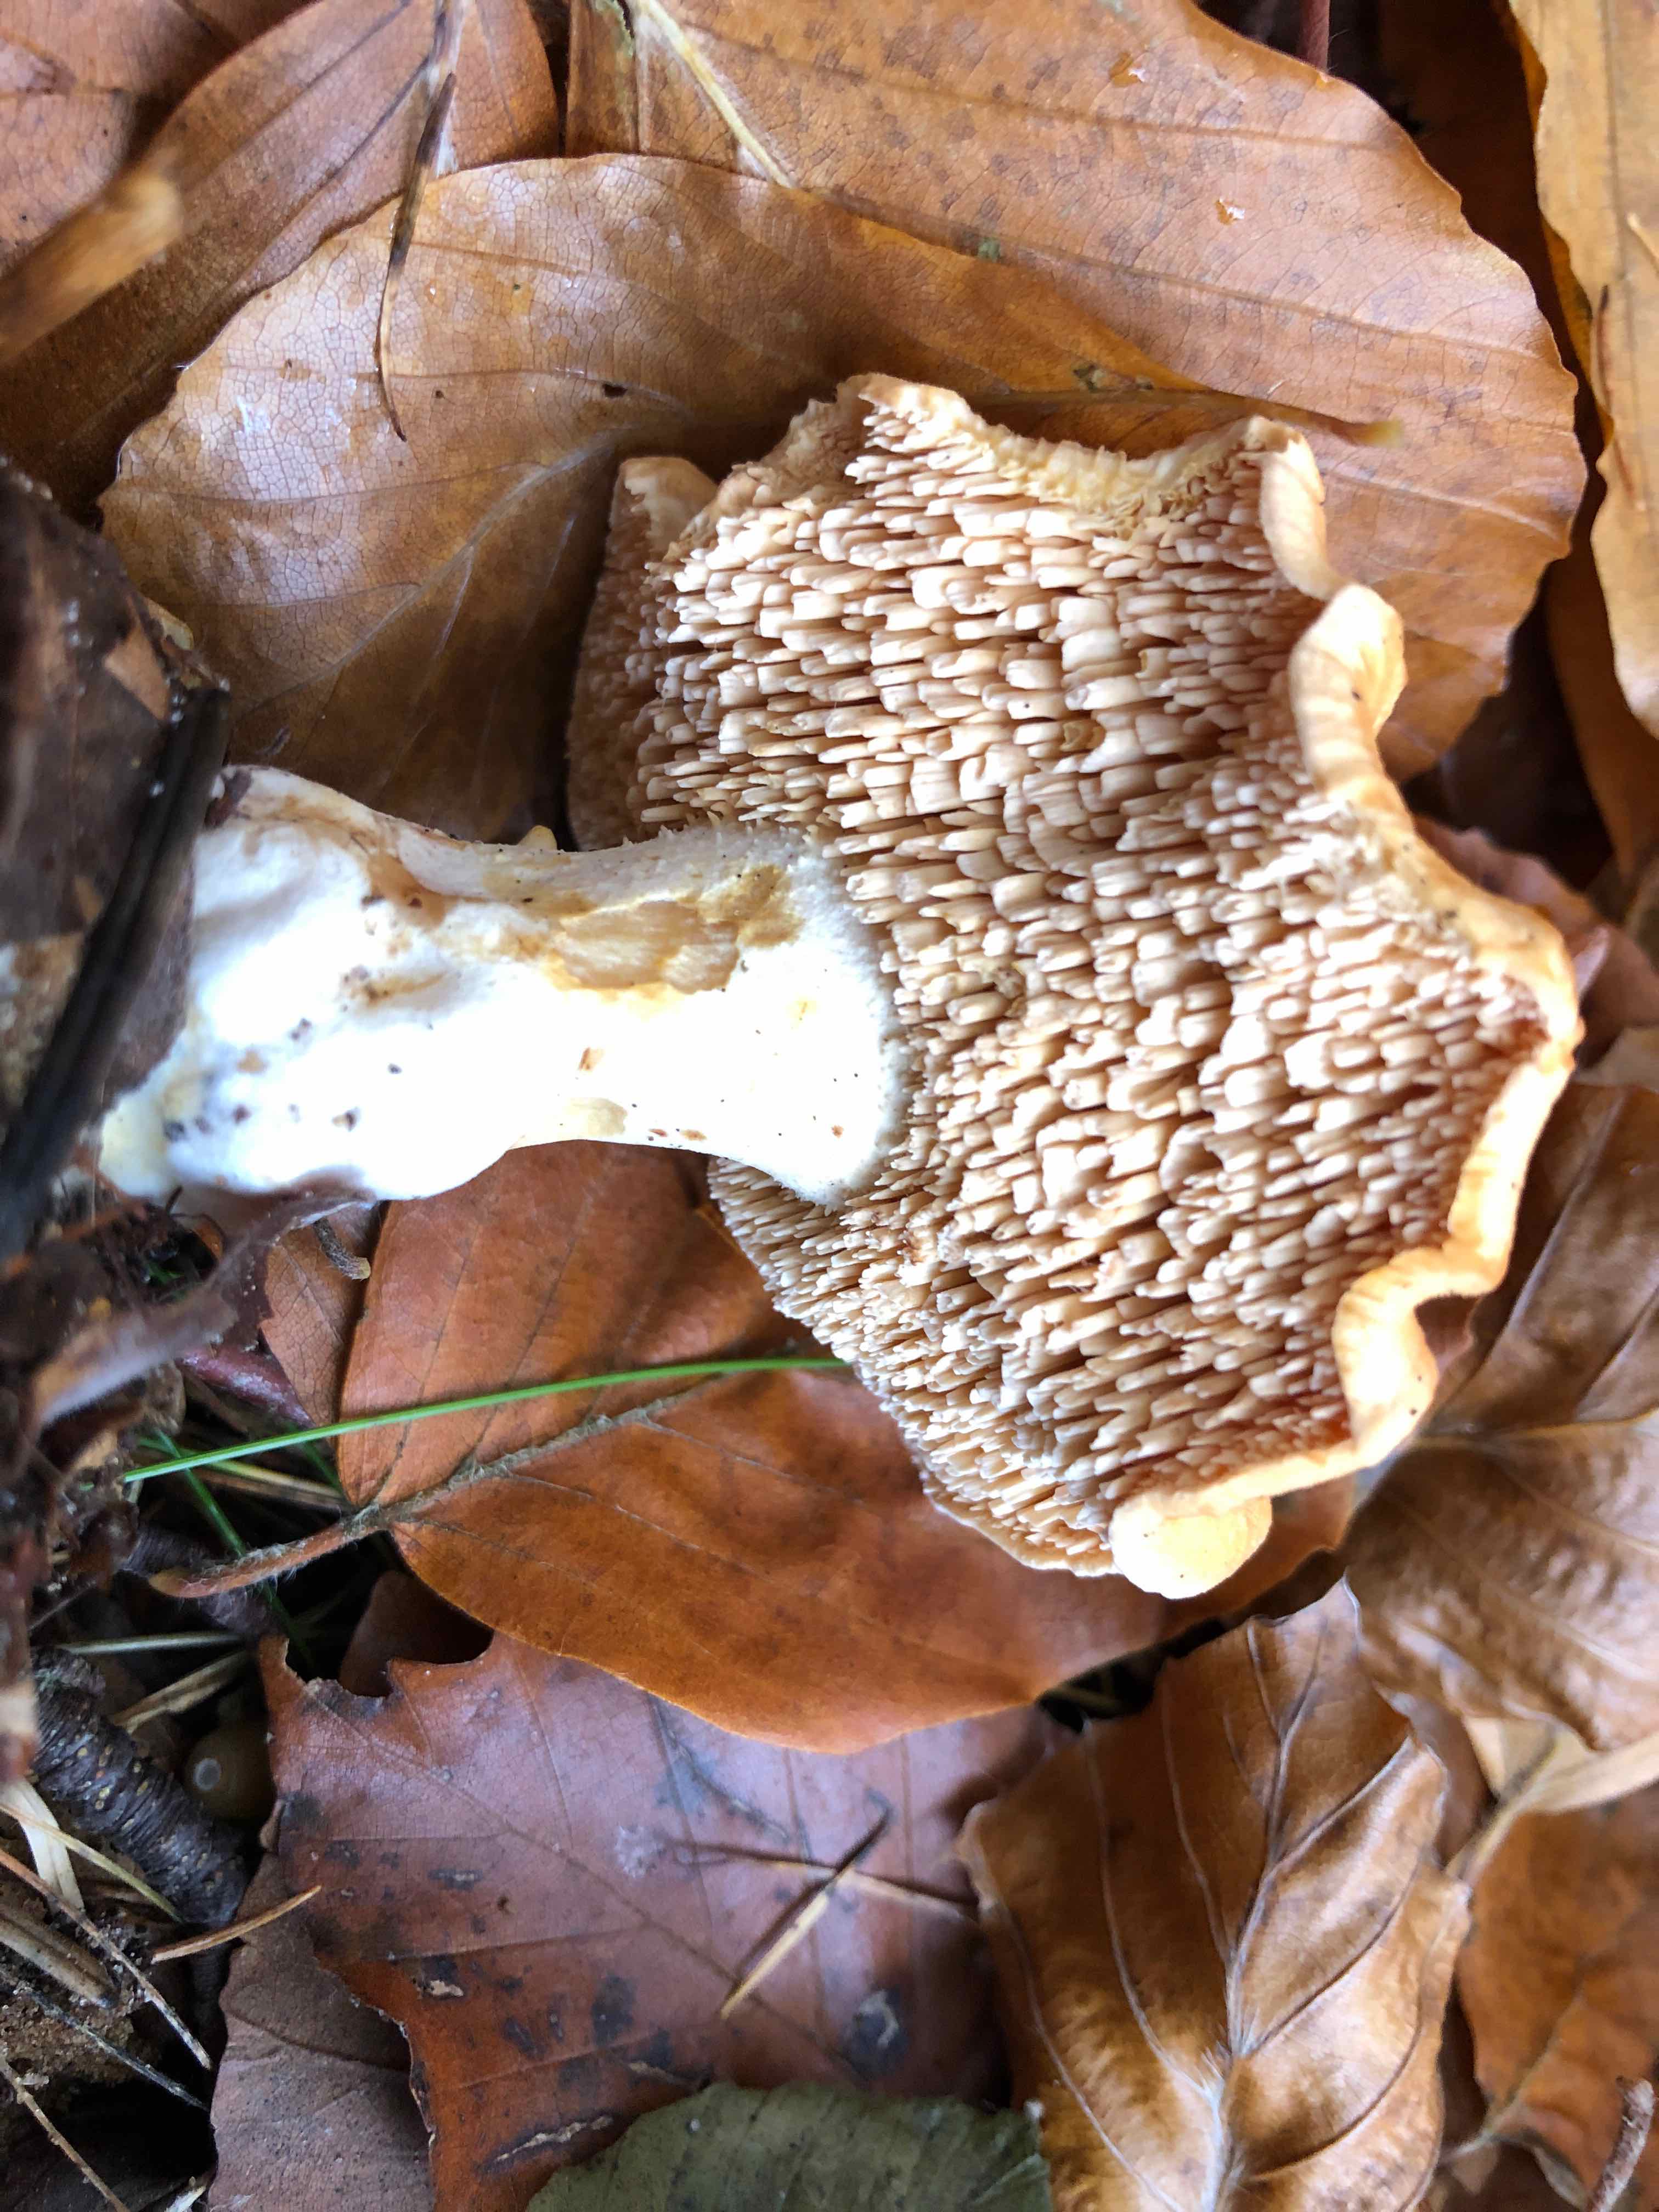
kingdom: Fungi
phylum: Basidiomycota
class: Agaricomycetes
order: Cantharellales
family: Hydnaceae
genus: Hydnum
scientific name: Hydnum
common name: pigsvamp
